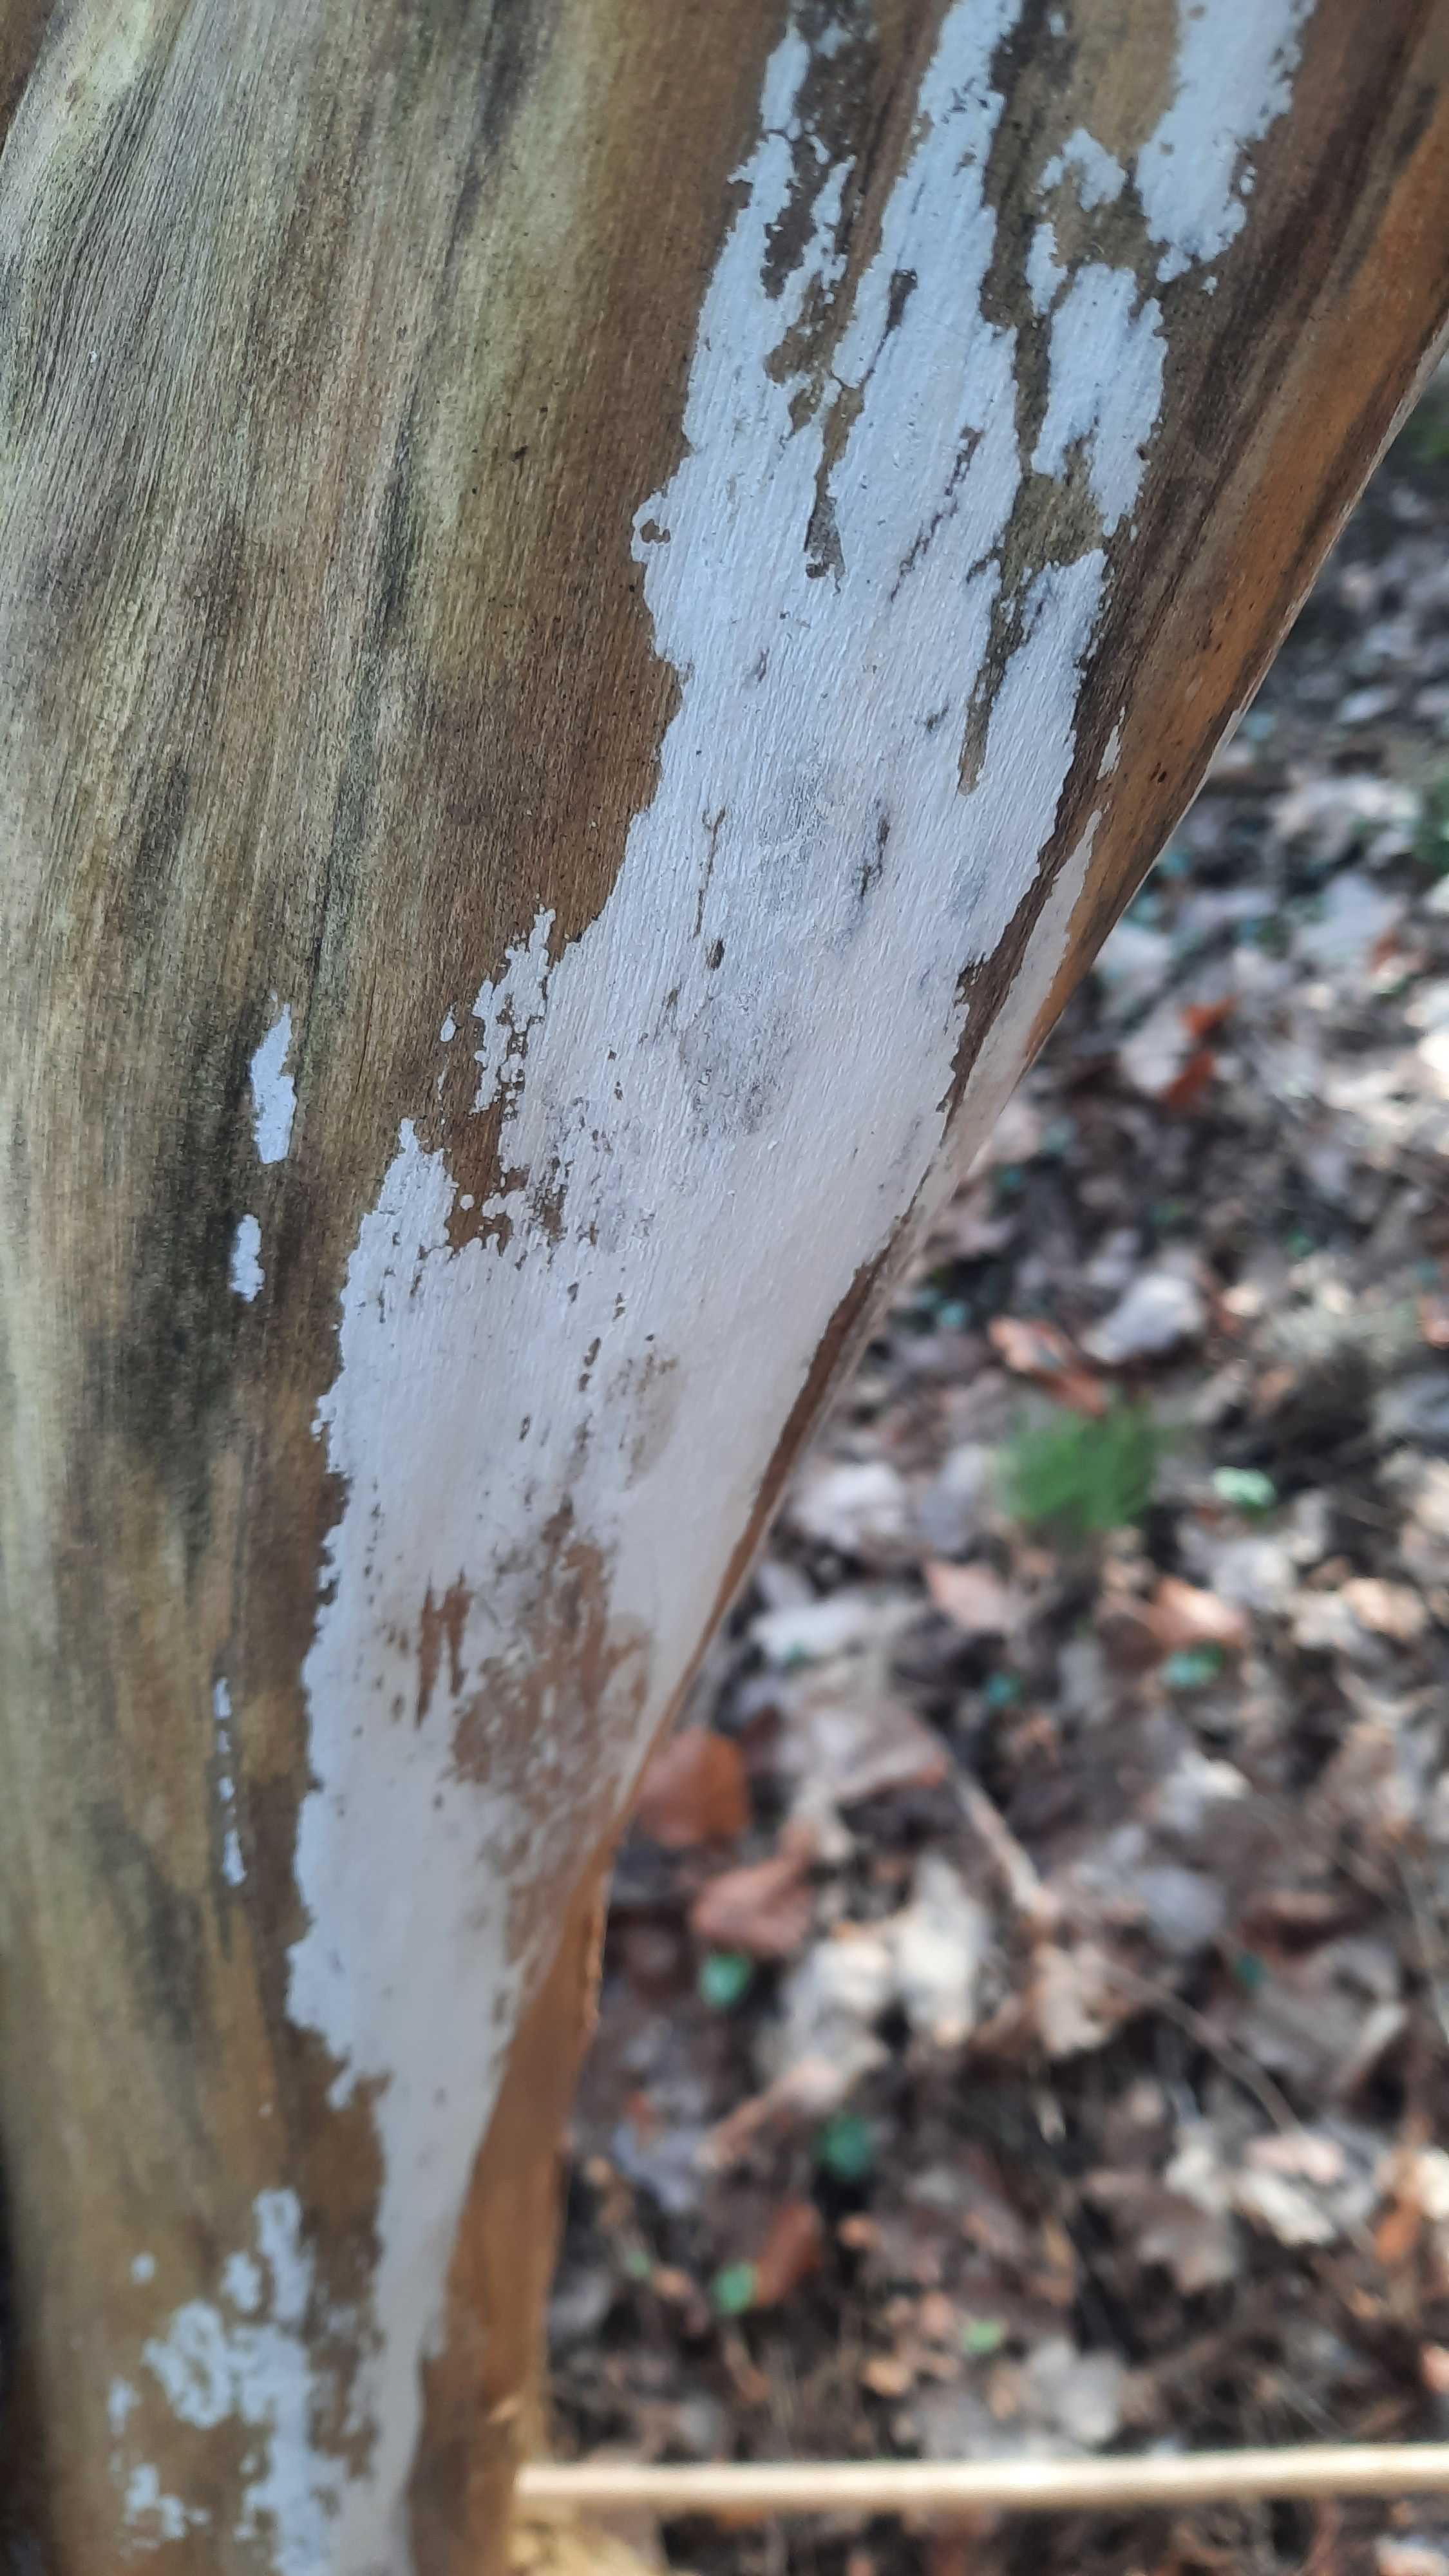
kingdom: Fungi
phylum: Basidiomycota
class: Agaricomycetes
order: Corticiales
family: Corticiaceae
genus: Lyomyces
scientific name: Lyomyces sambuci
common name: almindelig hyldehinde
